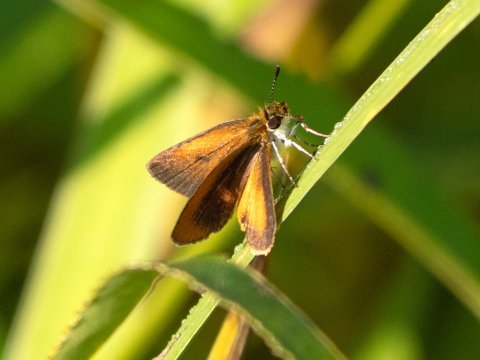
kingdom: Animalia
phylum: Arthropoda
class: Insecta
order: Lepidoptera
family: Hesperiidae
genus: Ancyloxypha
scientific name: Ancyloxypha numitor
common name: Least Skipper
